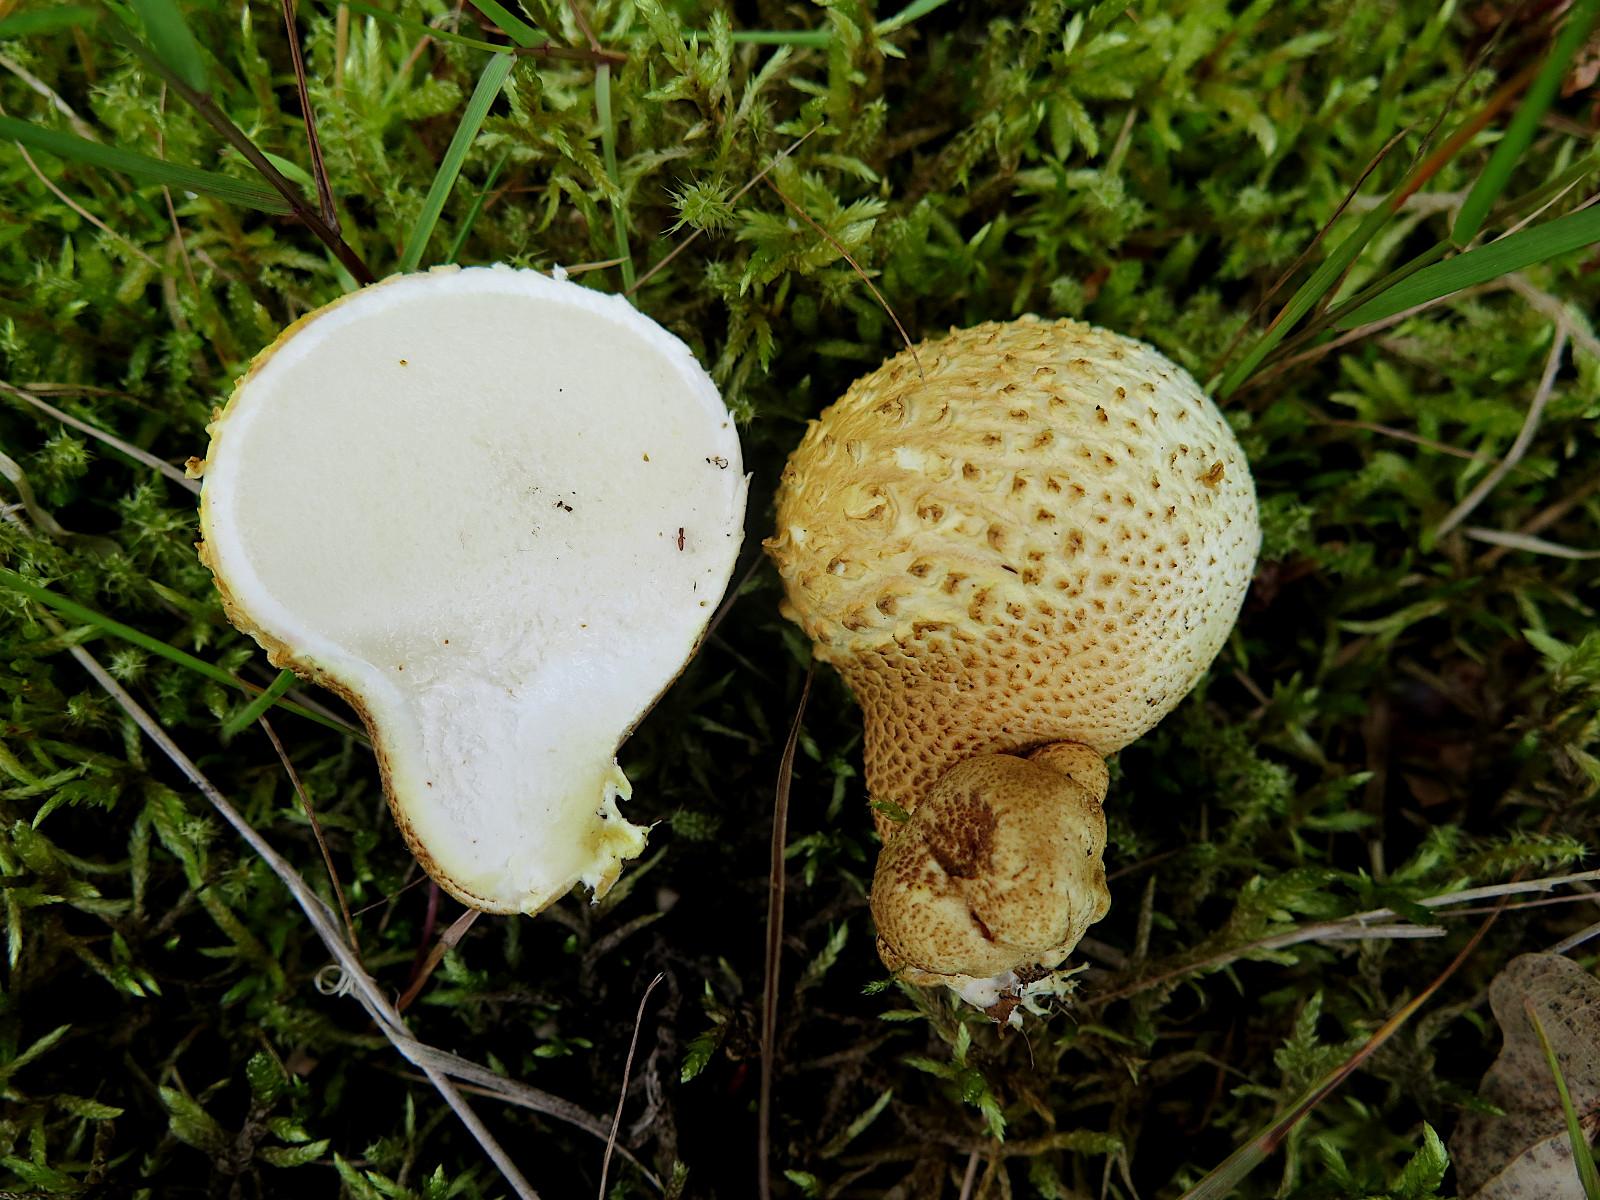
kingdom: Fungi
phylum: Basidiomycota
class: Agaricomycetes
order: Boletales
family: Sclerodermataceae
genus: Scleroderma
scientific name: Scleroderma citrinum
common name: almindelig bruskbold
